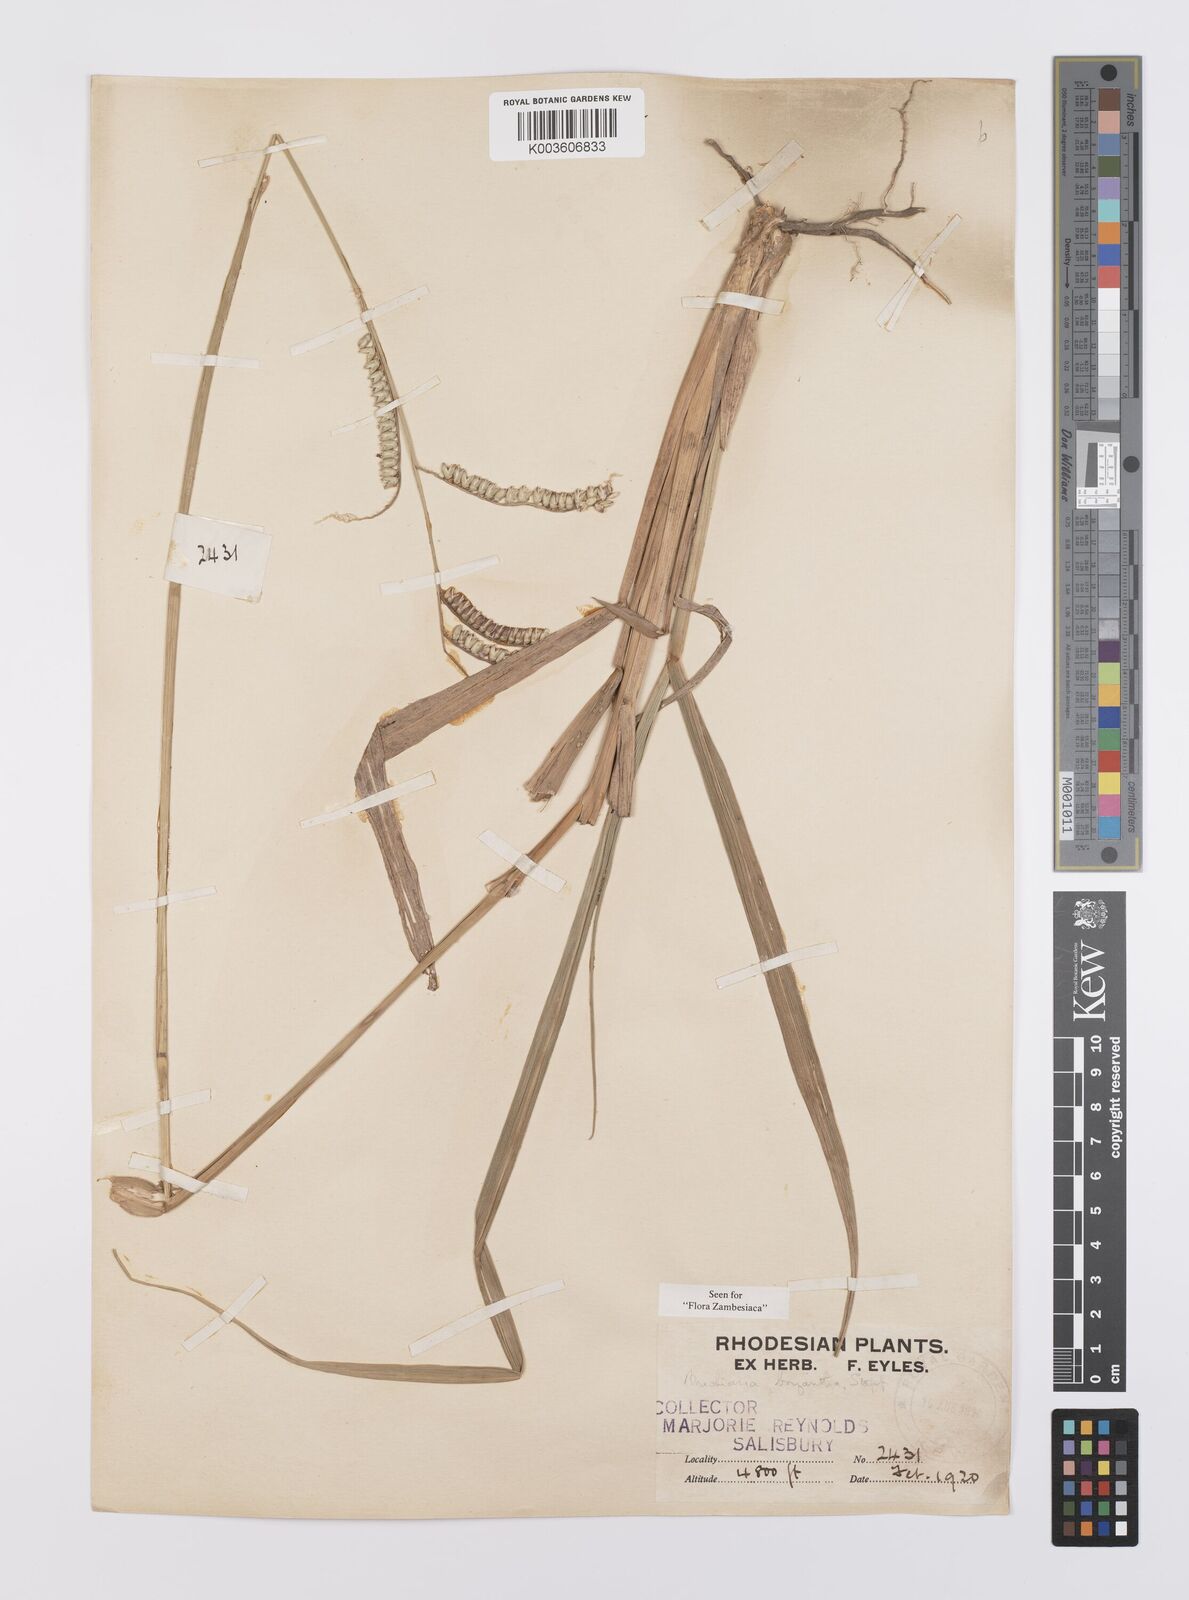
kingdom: Plantae
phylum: Tracheophyta
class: Liliopsida
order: Poales
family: Poaceae
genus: Urochloa
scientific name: Urochloa brizantha
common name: Palisade signalgrass
